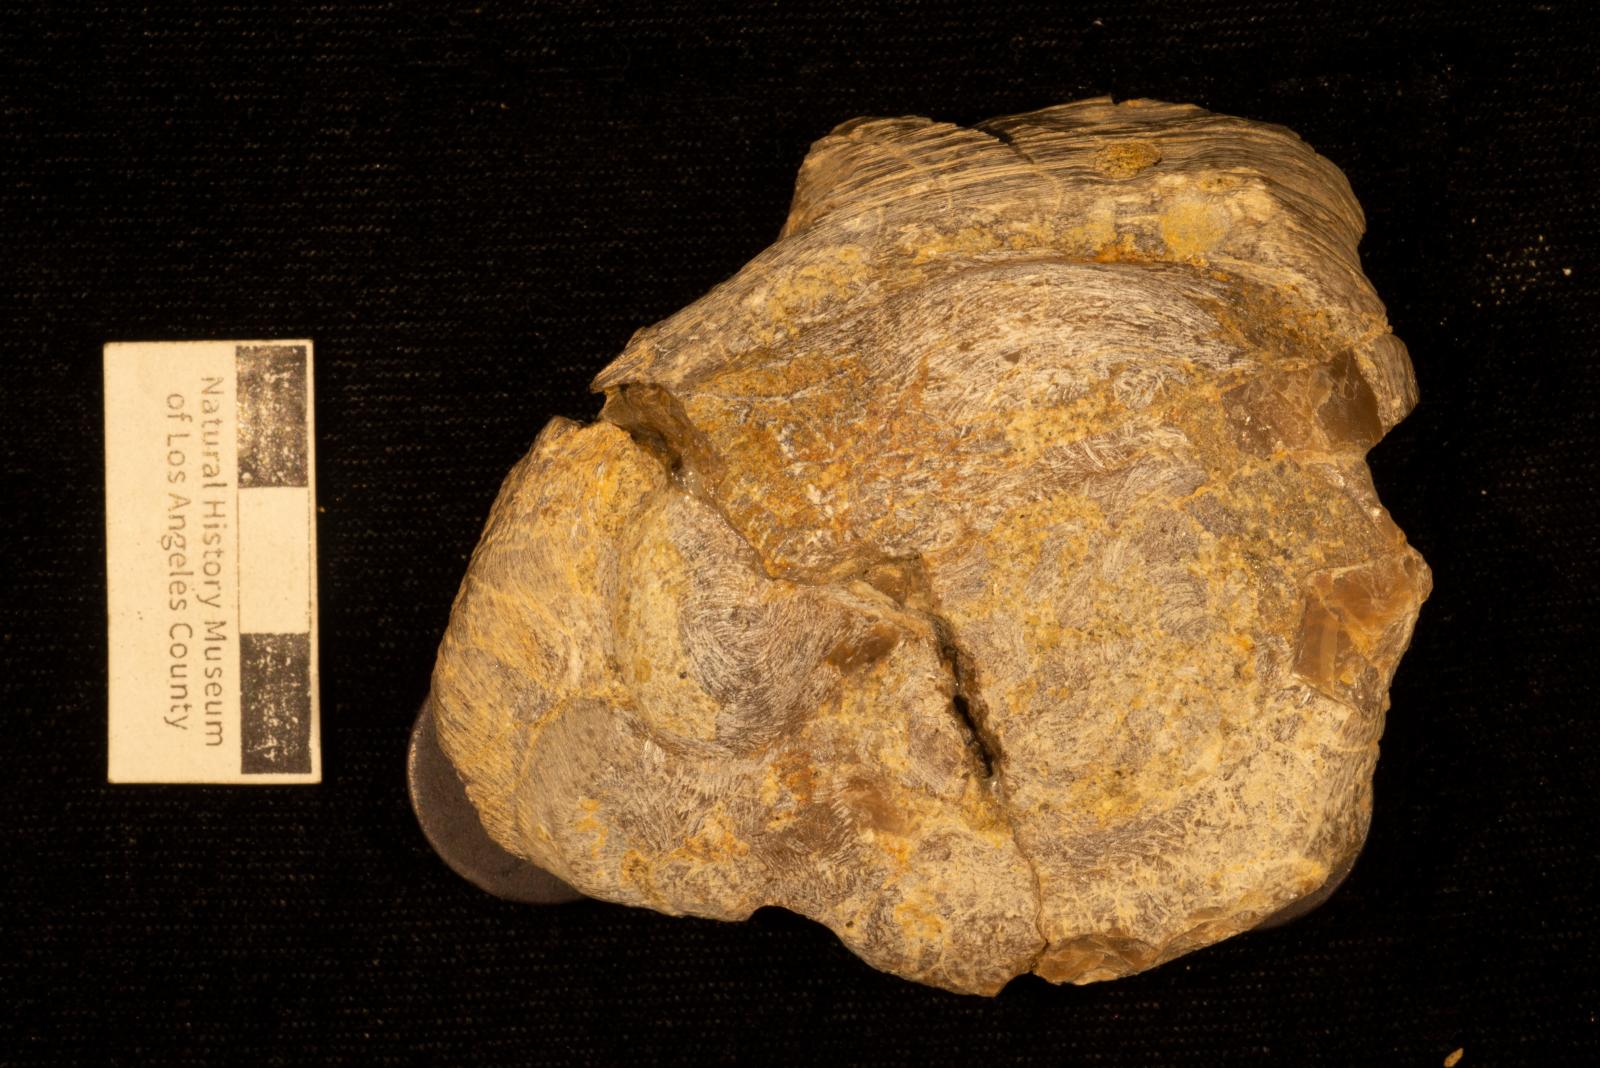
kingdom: Animalia
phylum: Mollusca
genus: Gastrochaenolites
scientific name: Gastrochaenolites
